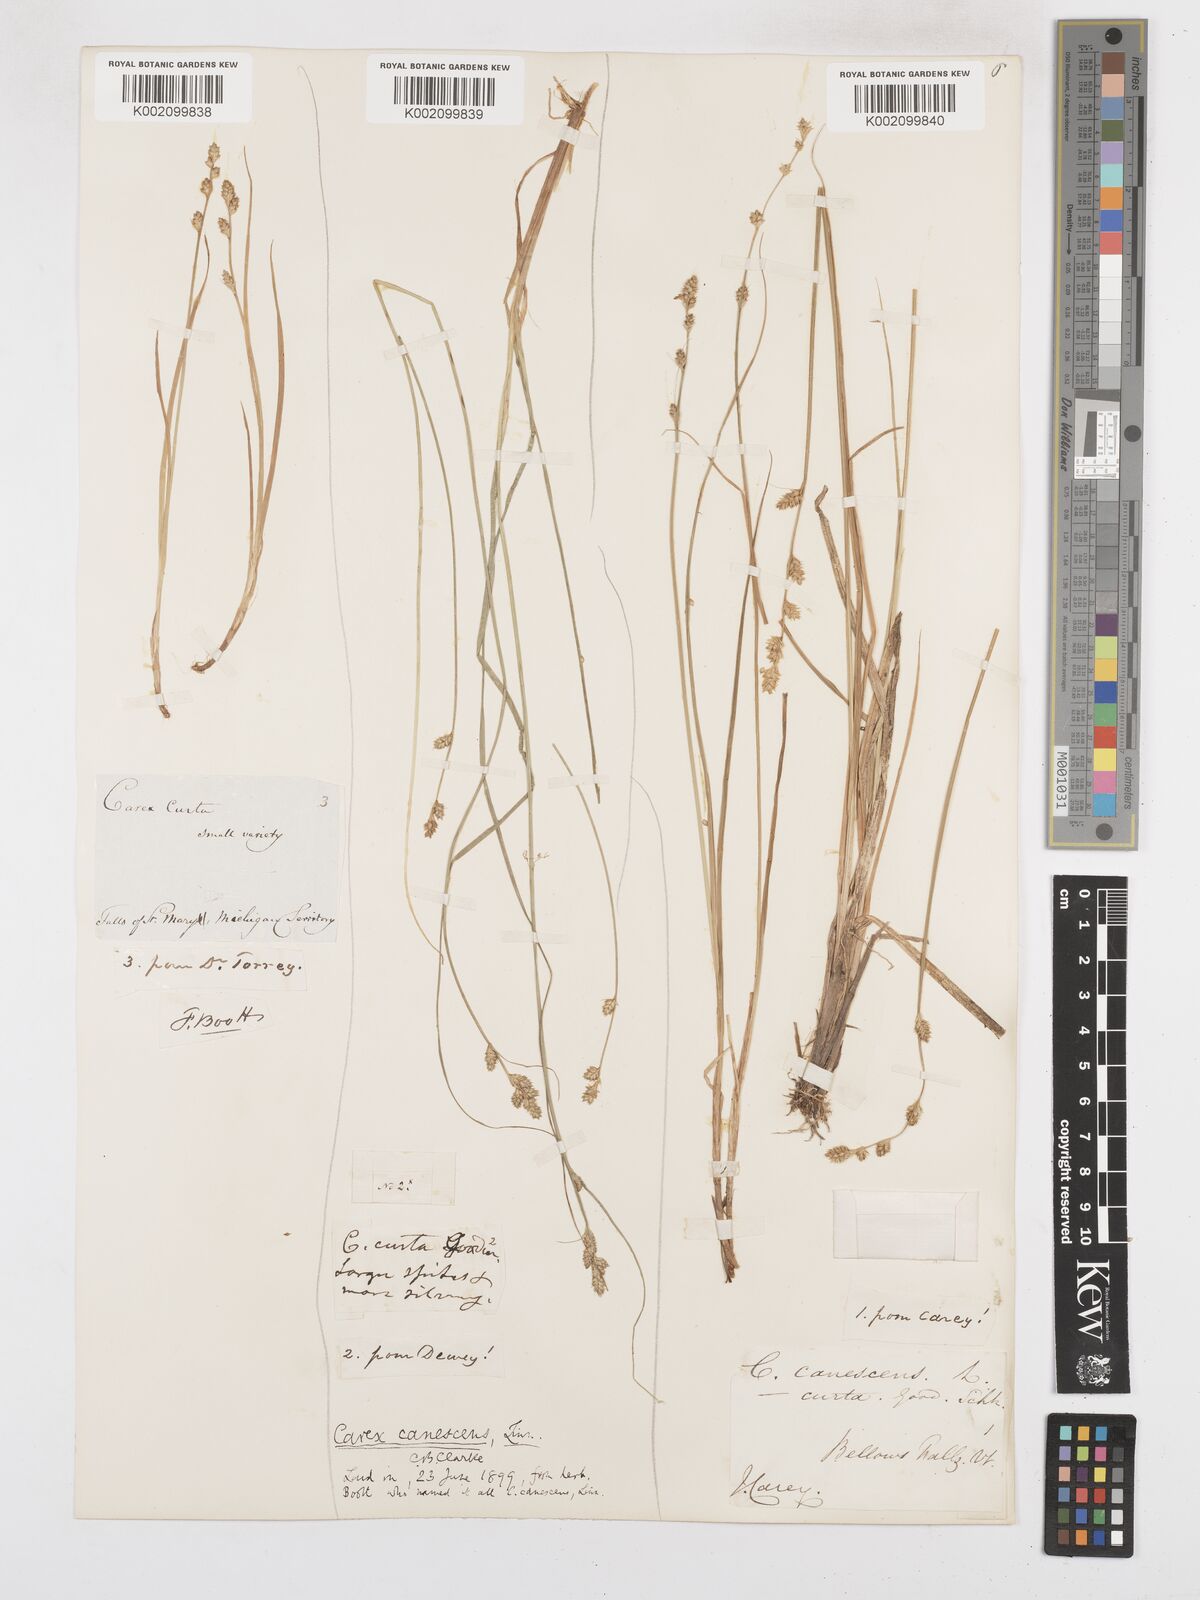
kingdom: Plantae
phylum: Tracheophyta
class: Liliopsida
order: Poales
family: Cyperaceae
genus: Carex
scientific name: Carex curta
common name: White sedge
